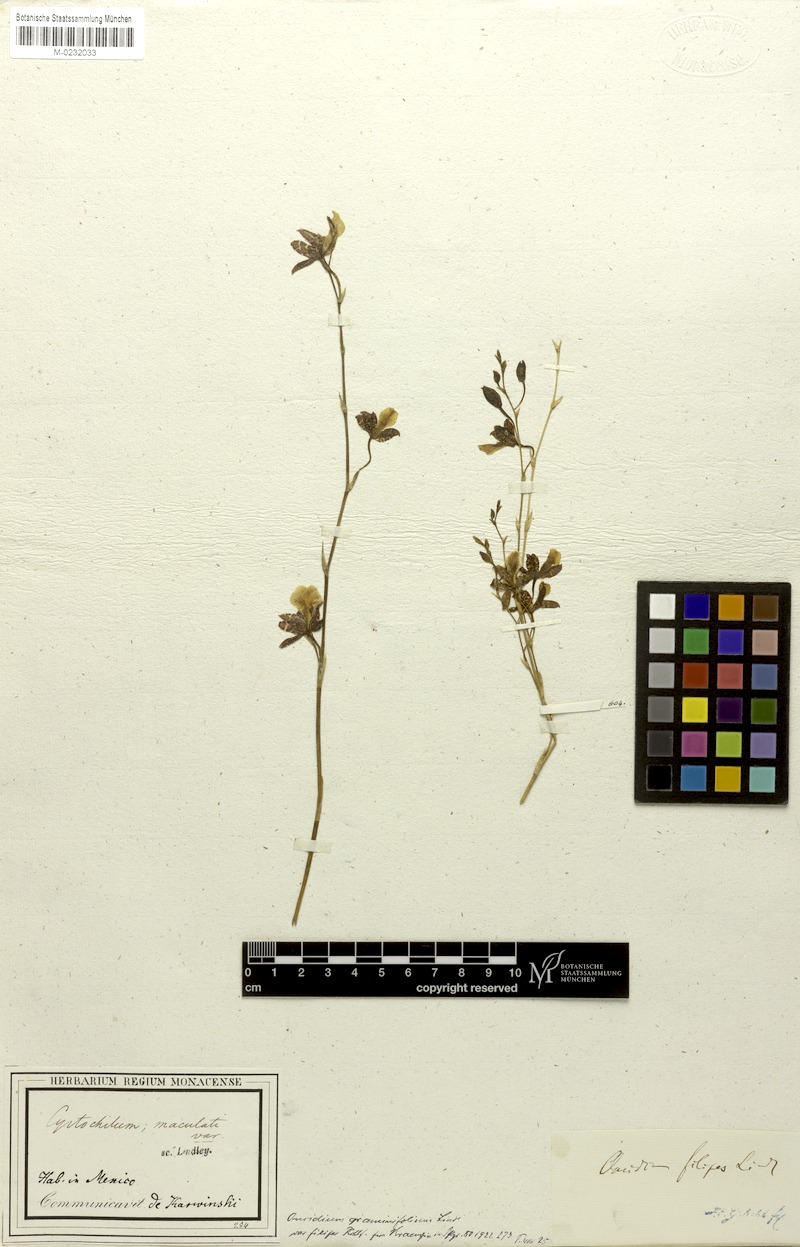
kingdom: Plantae
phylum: Tracheophyta
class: Liliopsida
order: Asparagales
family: Orchidaceae
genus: Oncidium
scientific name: Oncidium graminifolium
